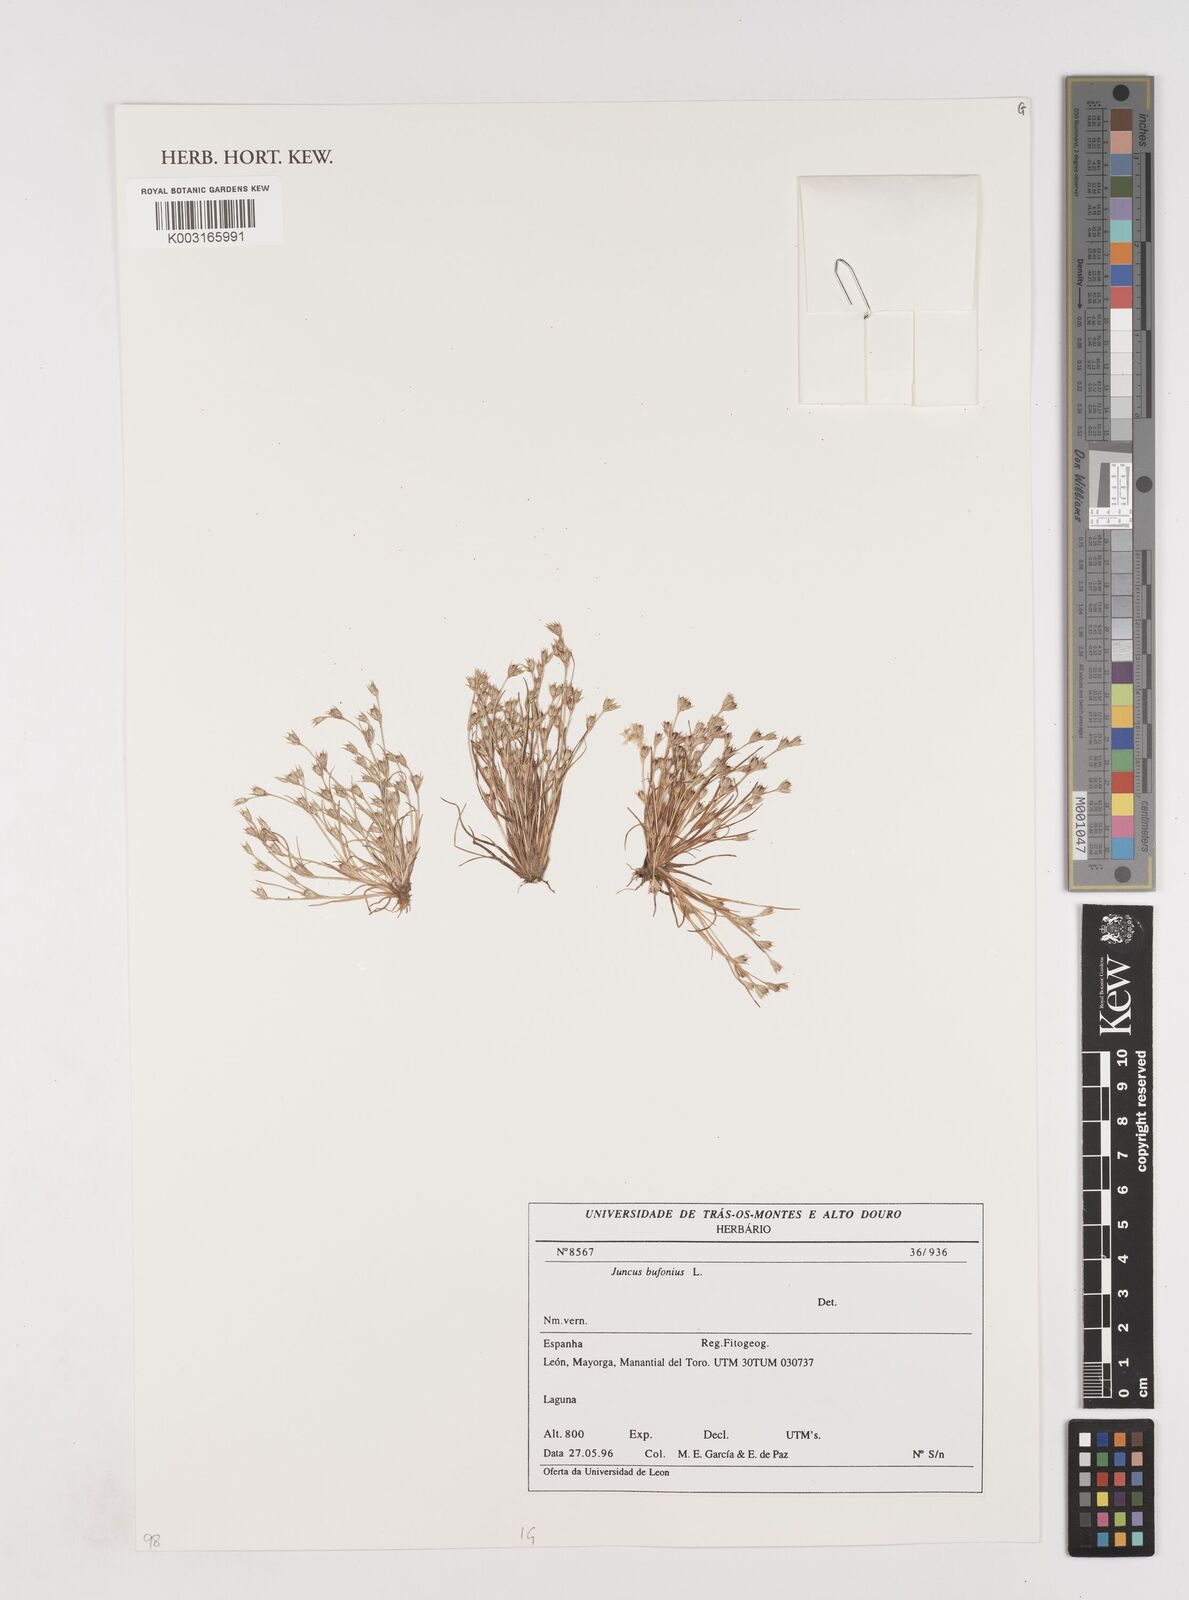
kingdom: Plantae
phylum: Tracheophyta
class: Liliopsida
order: Poales
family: Juncaceae
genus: Juncus
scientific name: Juncus bufonius
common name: Toad rush
